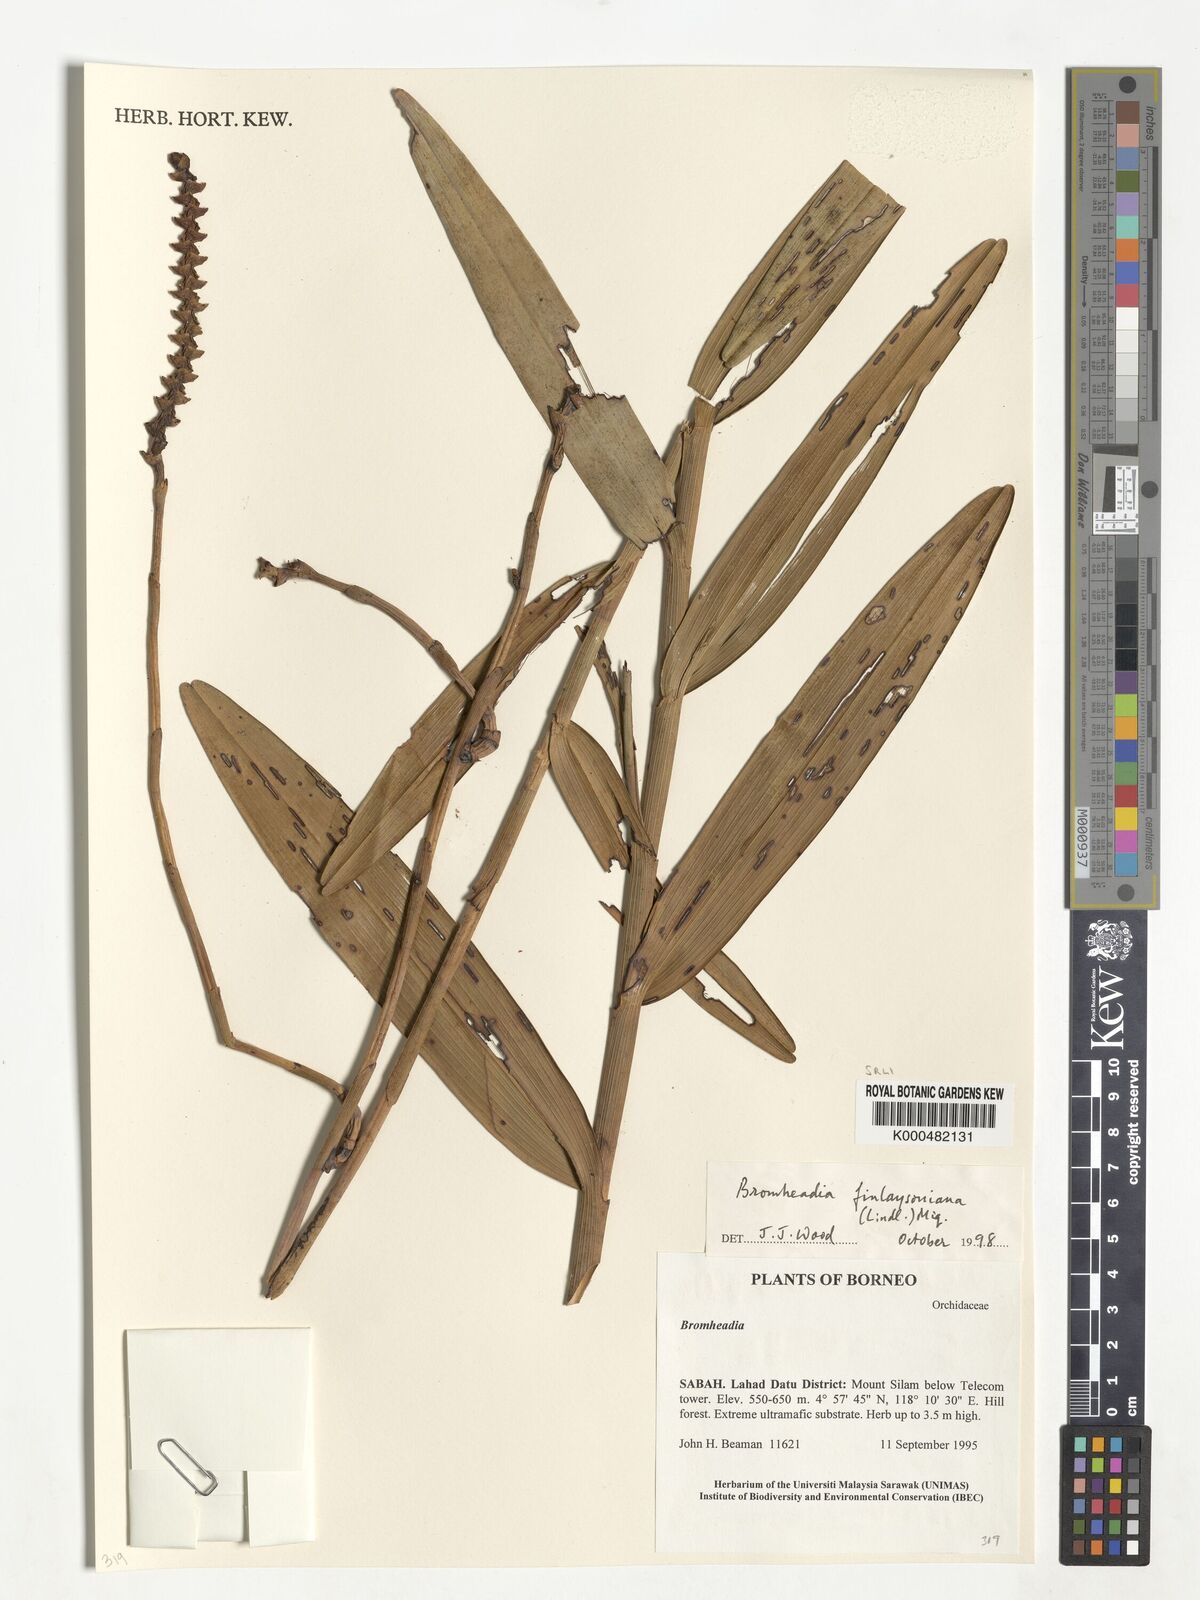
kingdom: Plantae
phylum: Tracheophyta
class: Liliopsida
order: Asparagales
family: Orchidaceae
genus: Bromheadia
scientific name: Bromheadia finlaysoniana
